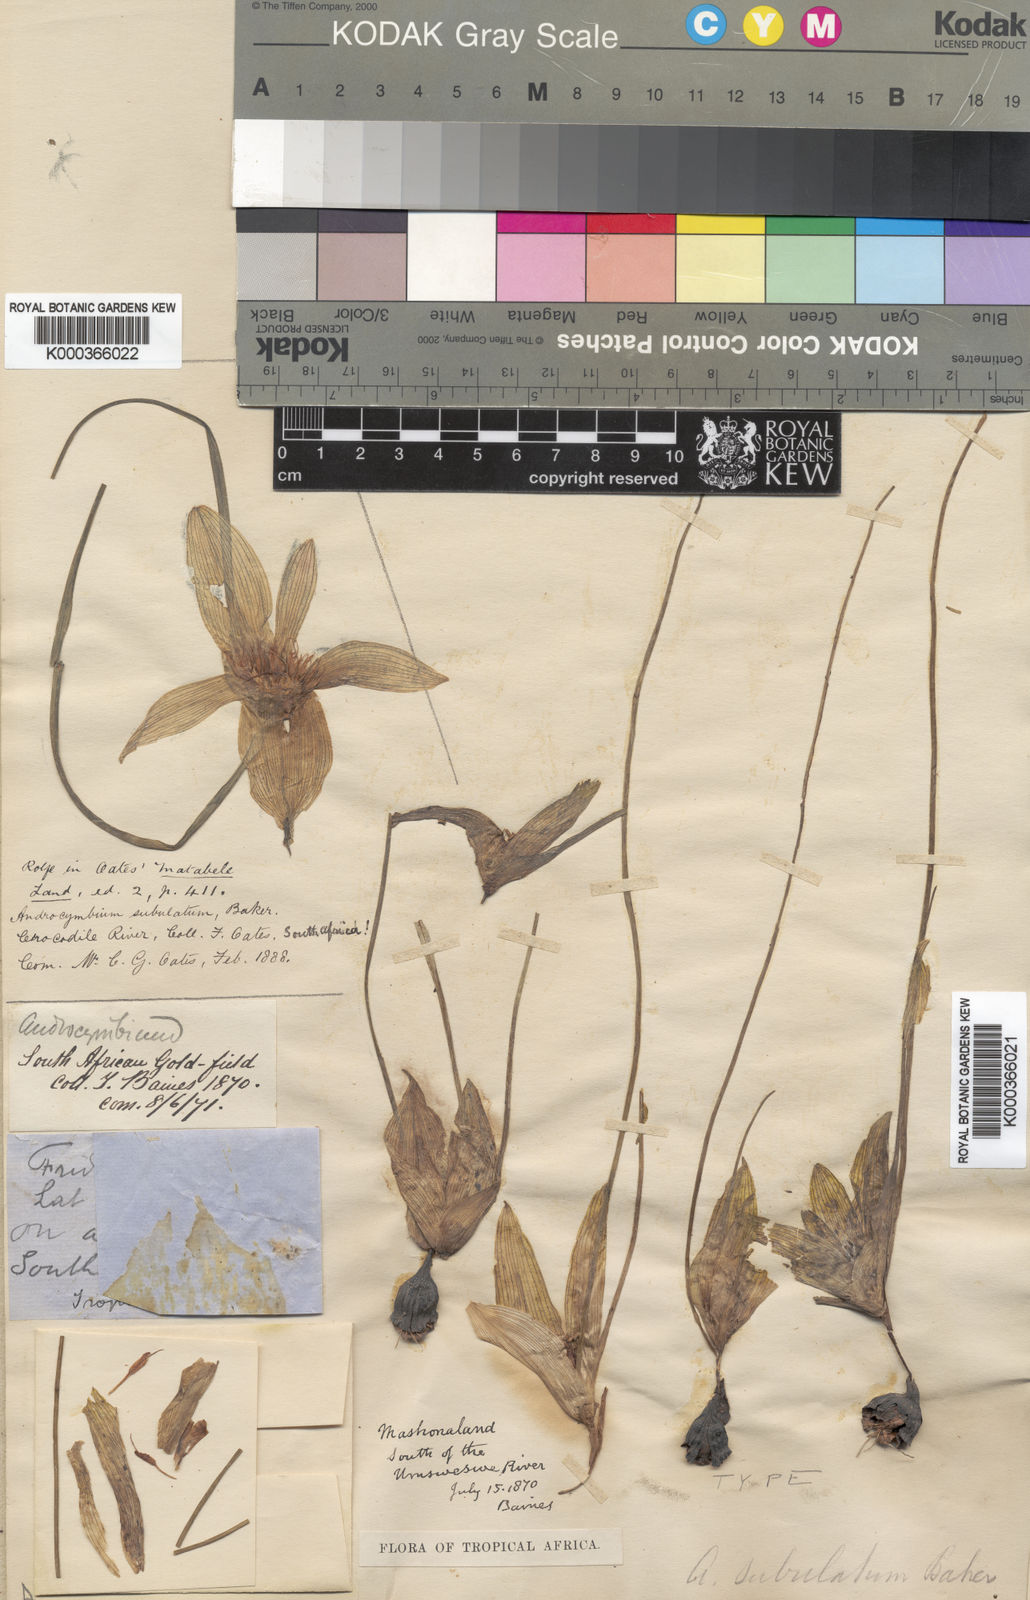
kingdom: Plantae
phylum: Tracheophyta
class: Liliopsida
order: Liliales
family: Colchicaceae
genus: Colchicum
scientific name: Colchicum melanthioides
